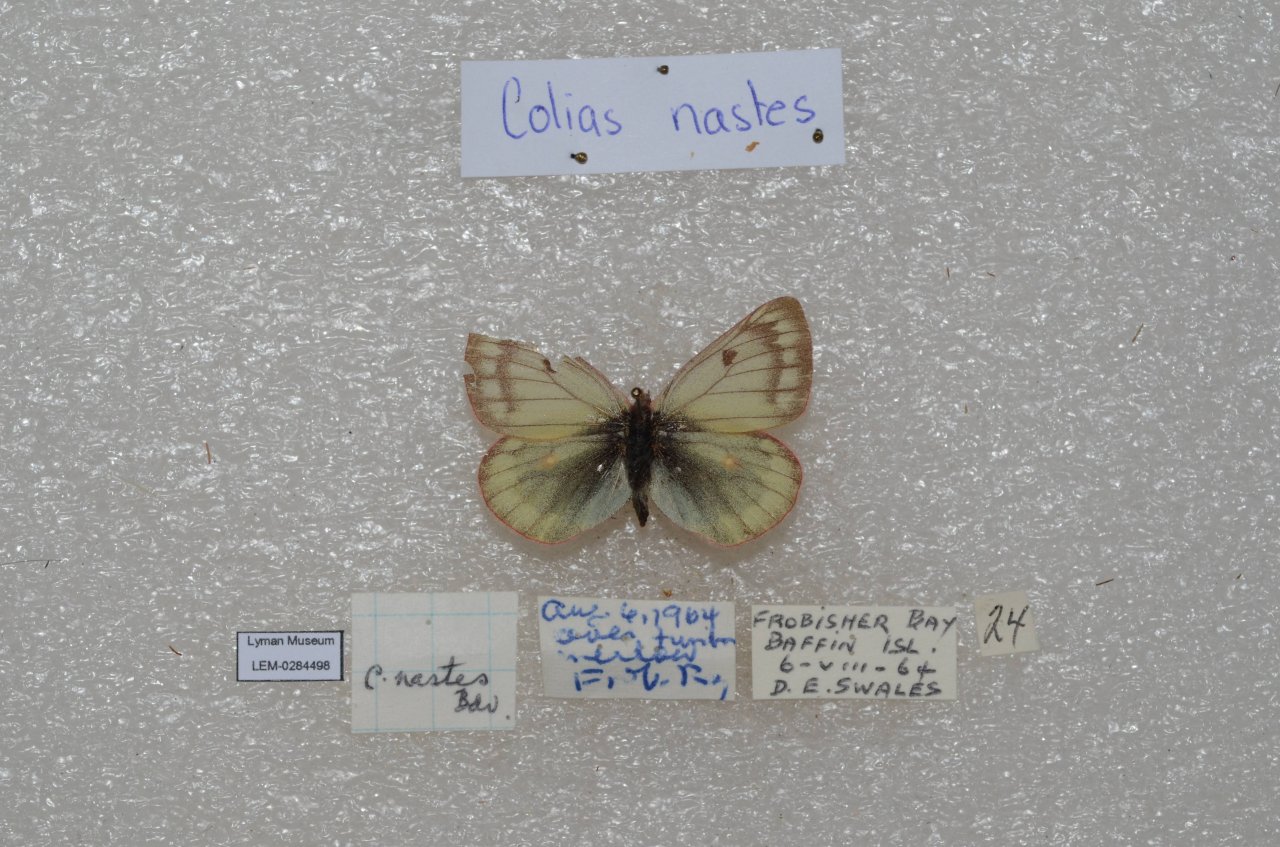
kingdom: Animalia
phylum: Arthropoda
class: Insecta
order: Lepidoptera
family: Pieridae
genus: Colias
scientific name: Colias nastes
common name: Labrador Sulphur
